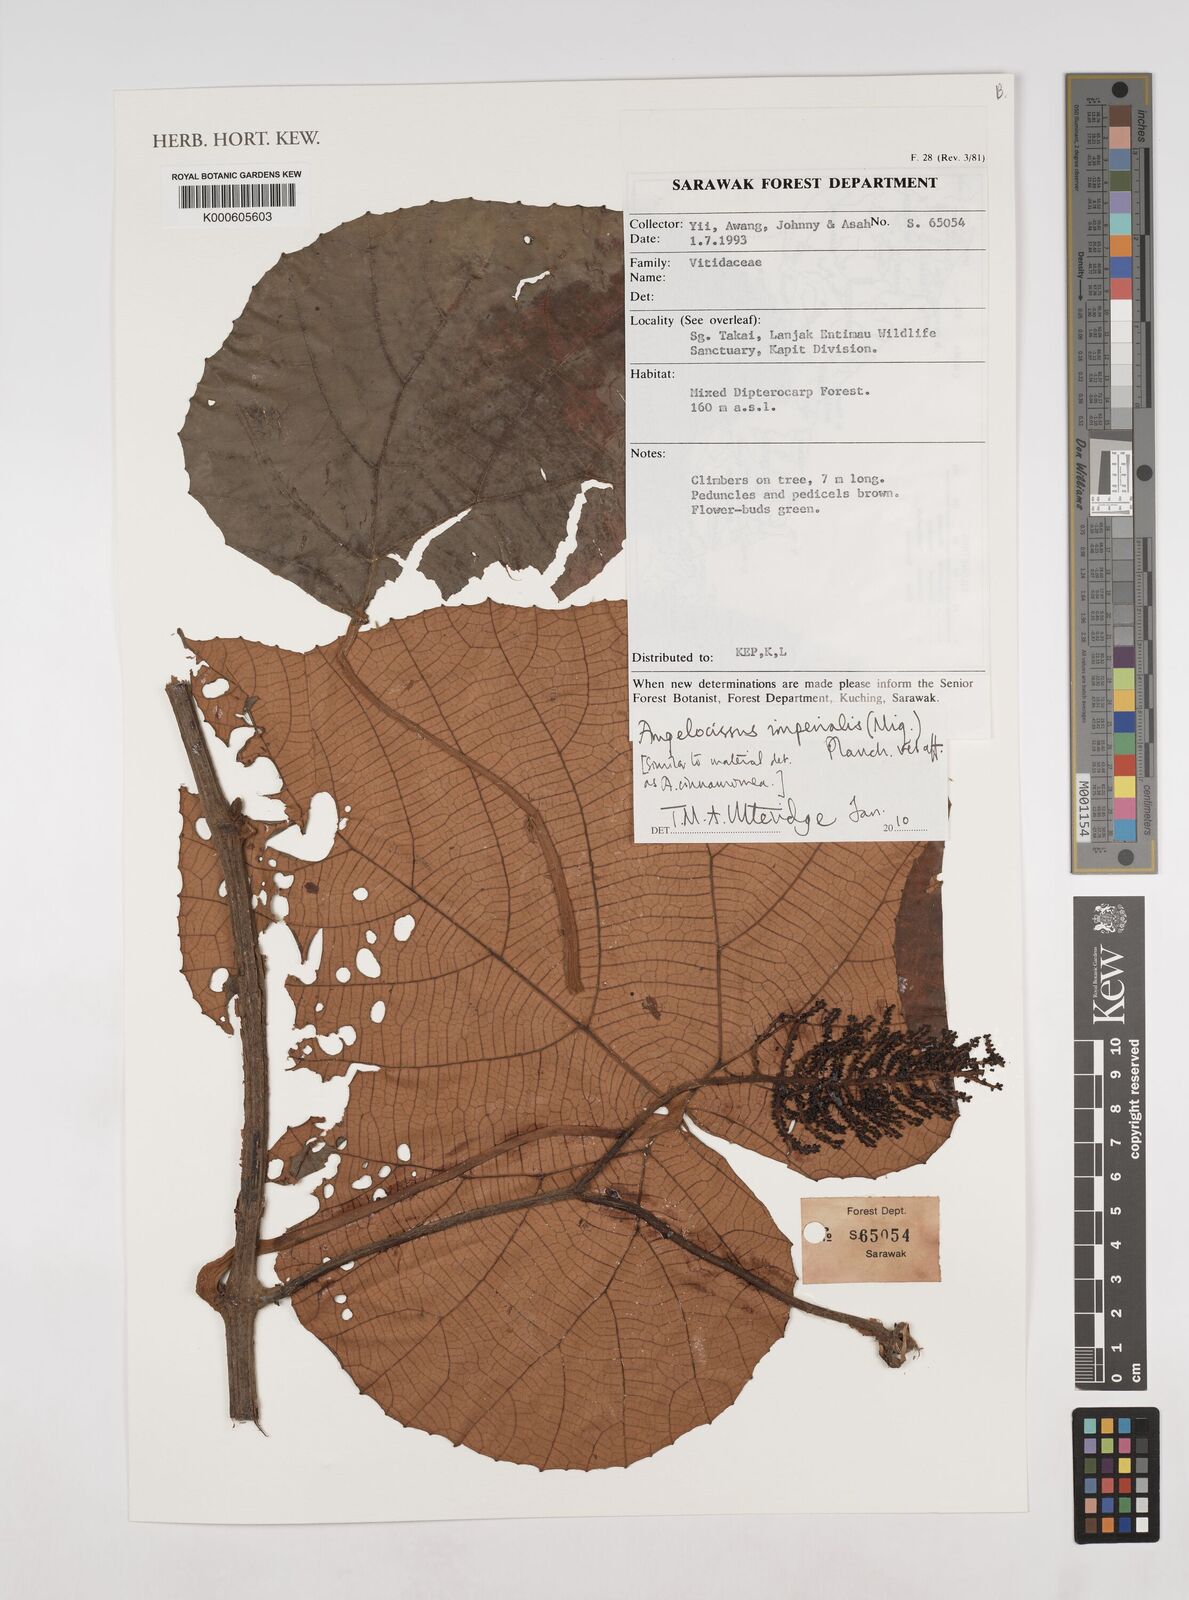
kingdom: Plantae
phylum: Tracheophyta
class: Magnoliopsida
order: Vitales
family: Vitaceae
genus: Ampelocissus
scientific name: Ampelocissus imperialis
